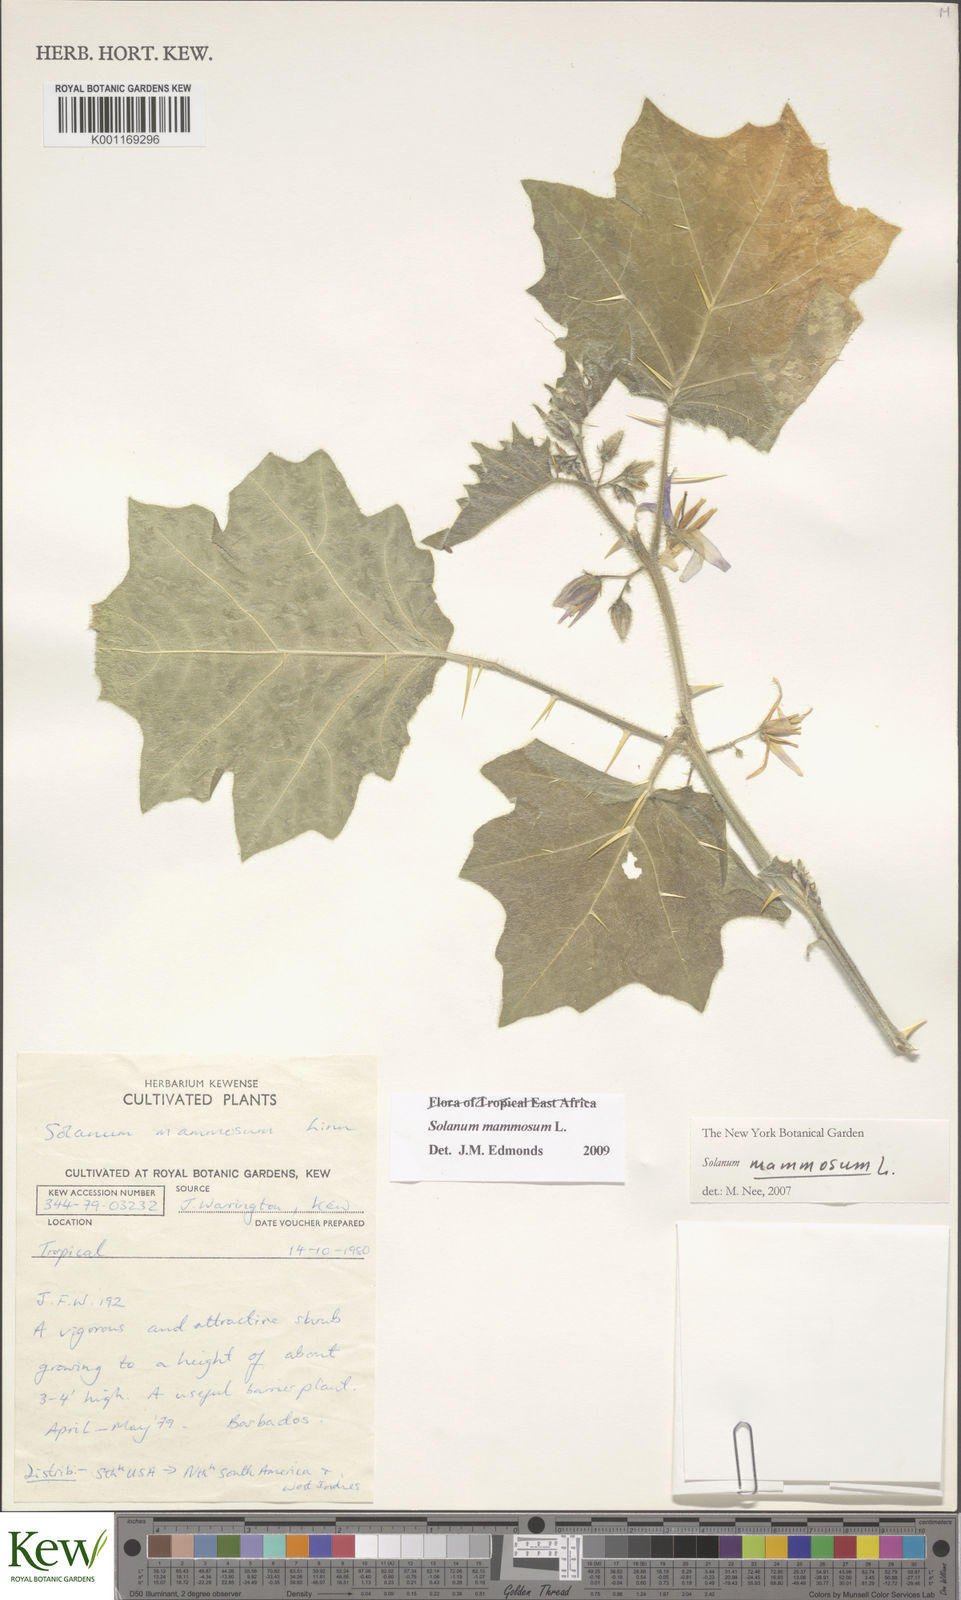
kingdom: Plantae
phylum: Tracheophyta
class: Magnoliopsida
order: Solanales
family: Solanaceae
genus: Solanum
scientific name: Solanum mammosum
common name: Nipple fruit
